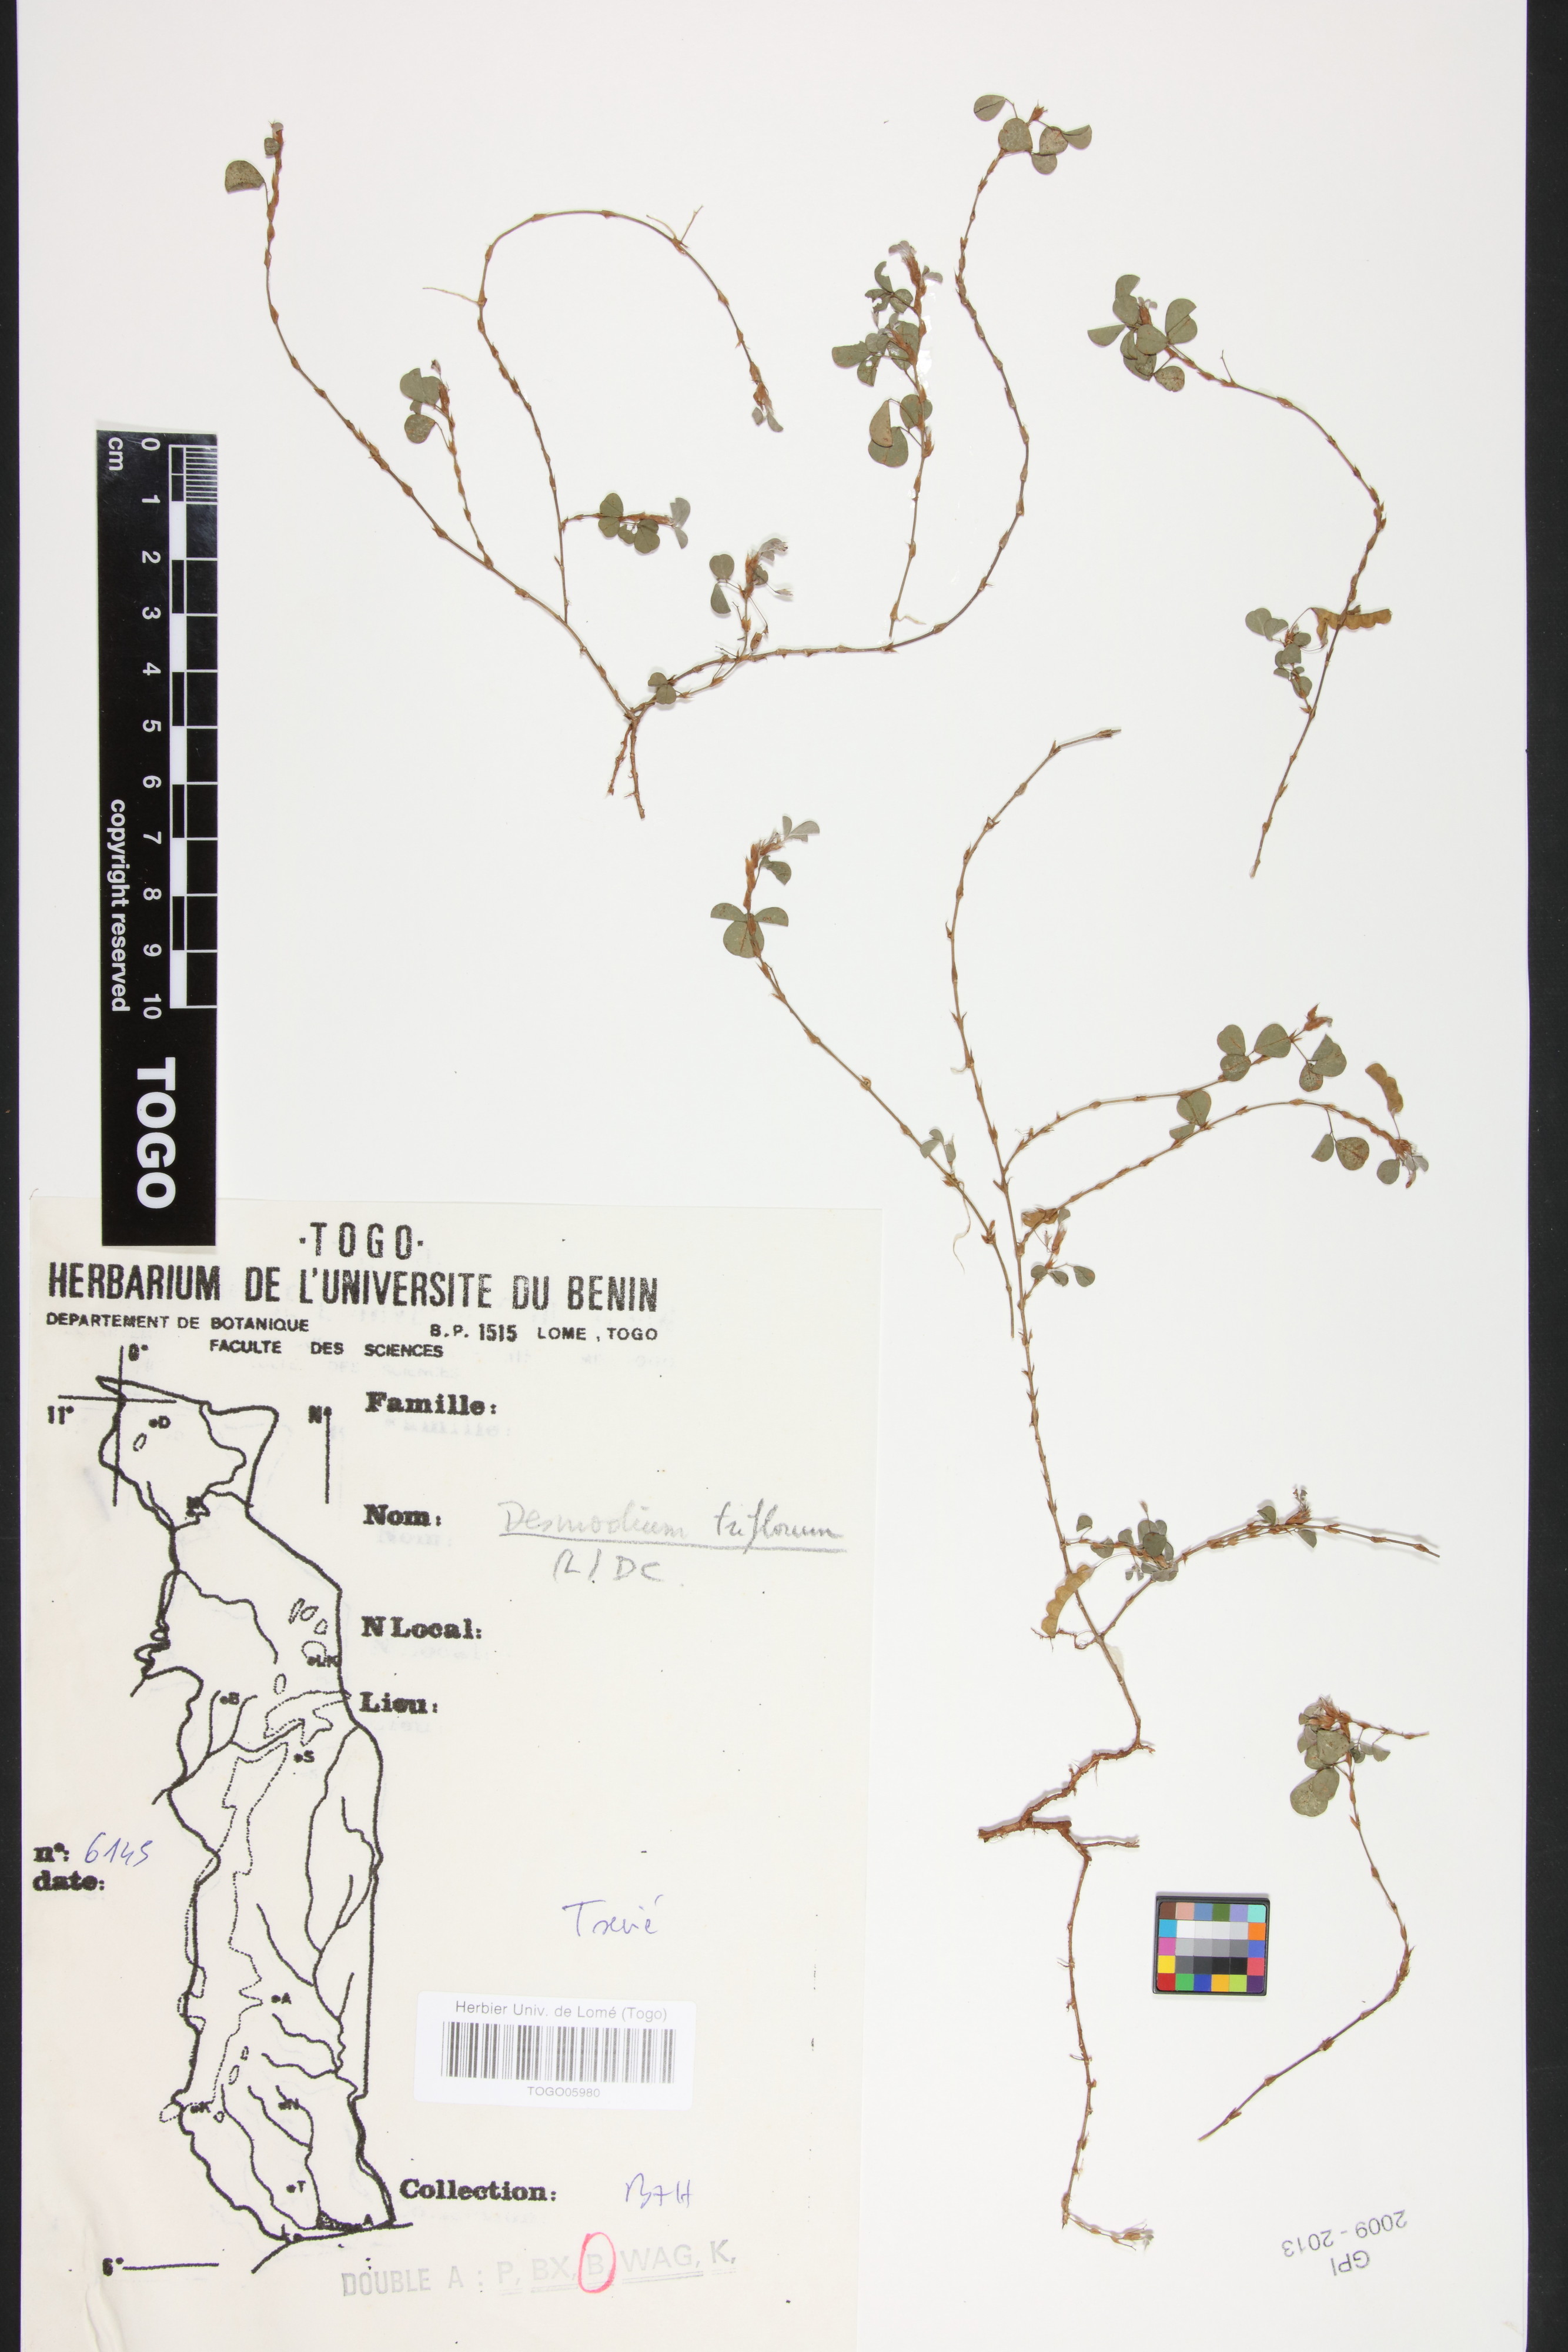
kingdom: Plantae
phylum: Tracheophyta
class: Magnoliopsida
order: Fabales
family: Fabaceae
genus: Grona
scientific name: Grona triflora
